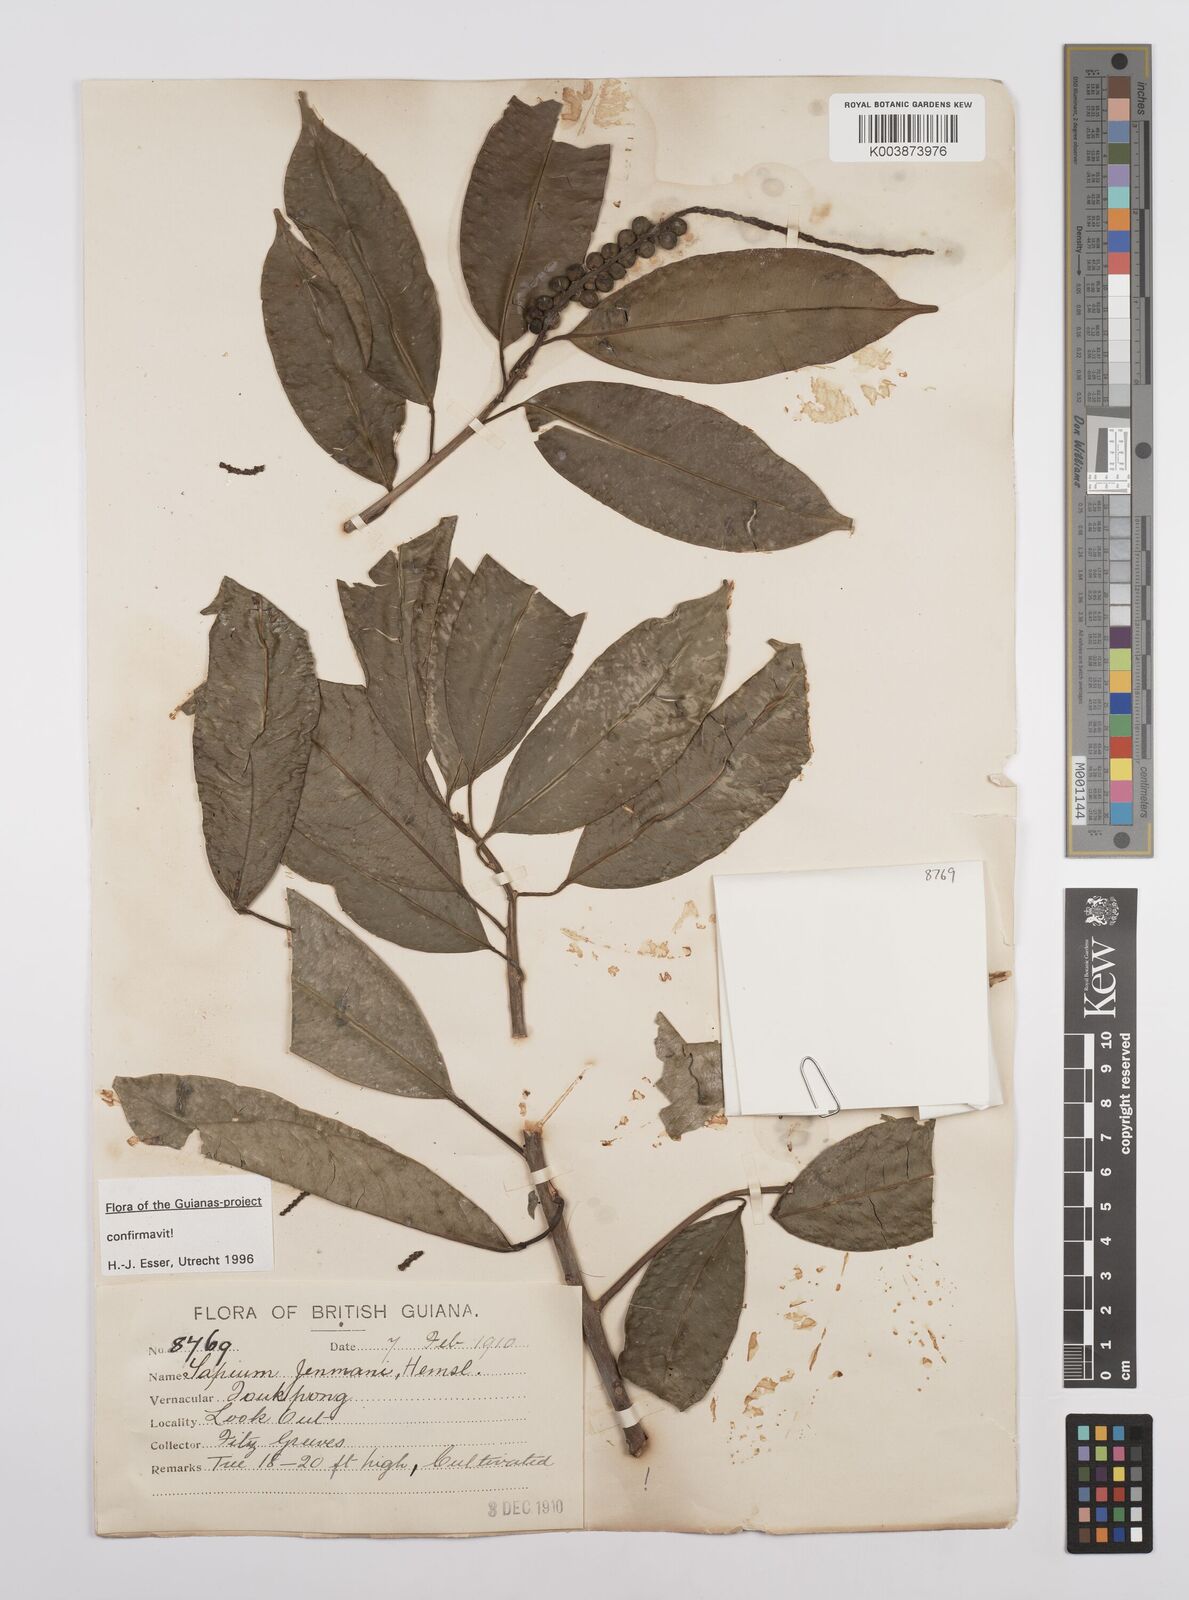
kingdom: Plantae
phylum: Tracheophyta
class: Magnoliopsida
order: Malpighiales
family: Euphorbiaceae
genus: Sapium
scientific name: Sapium jenmannii
